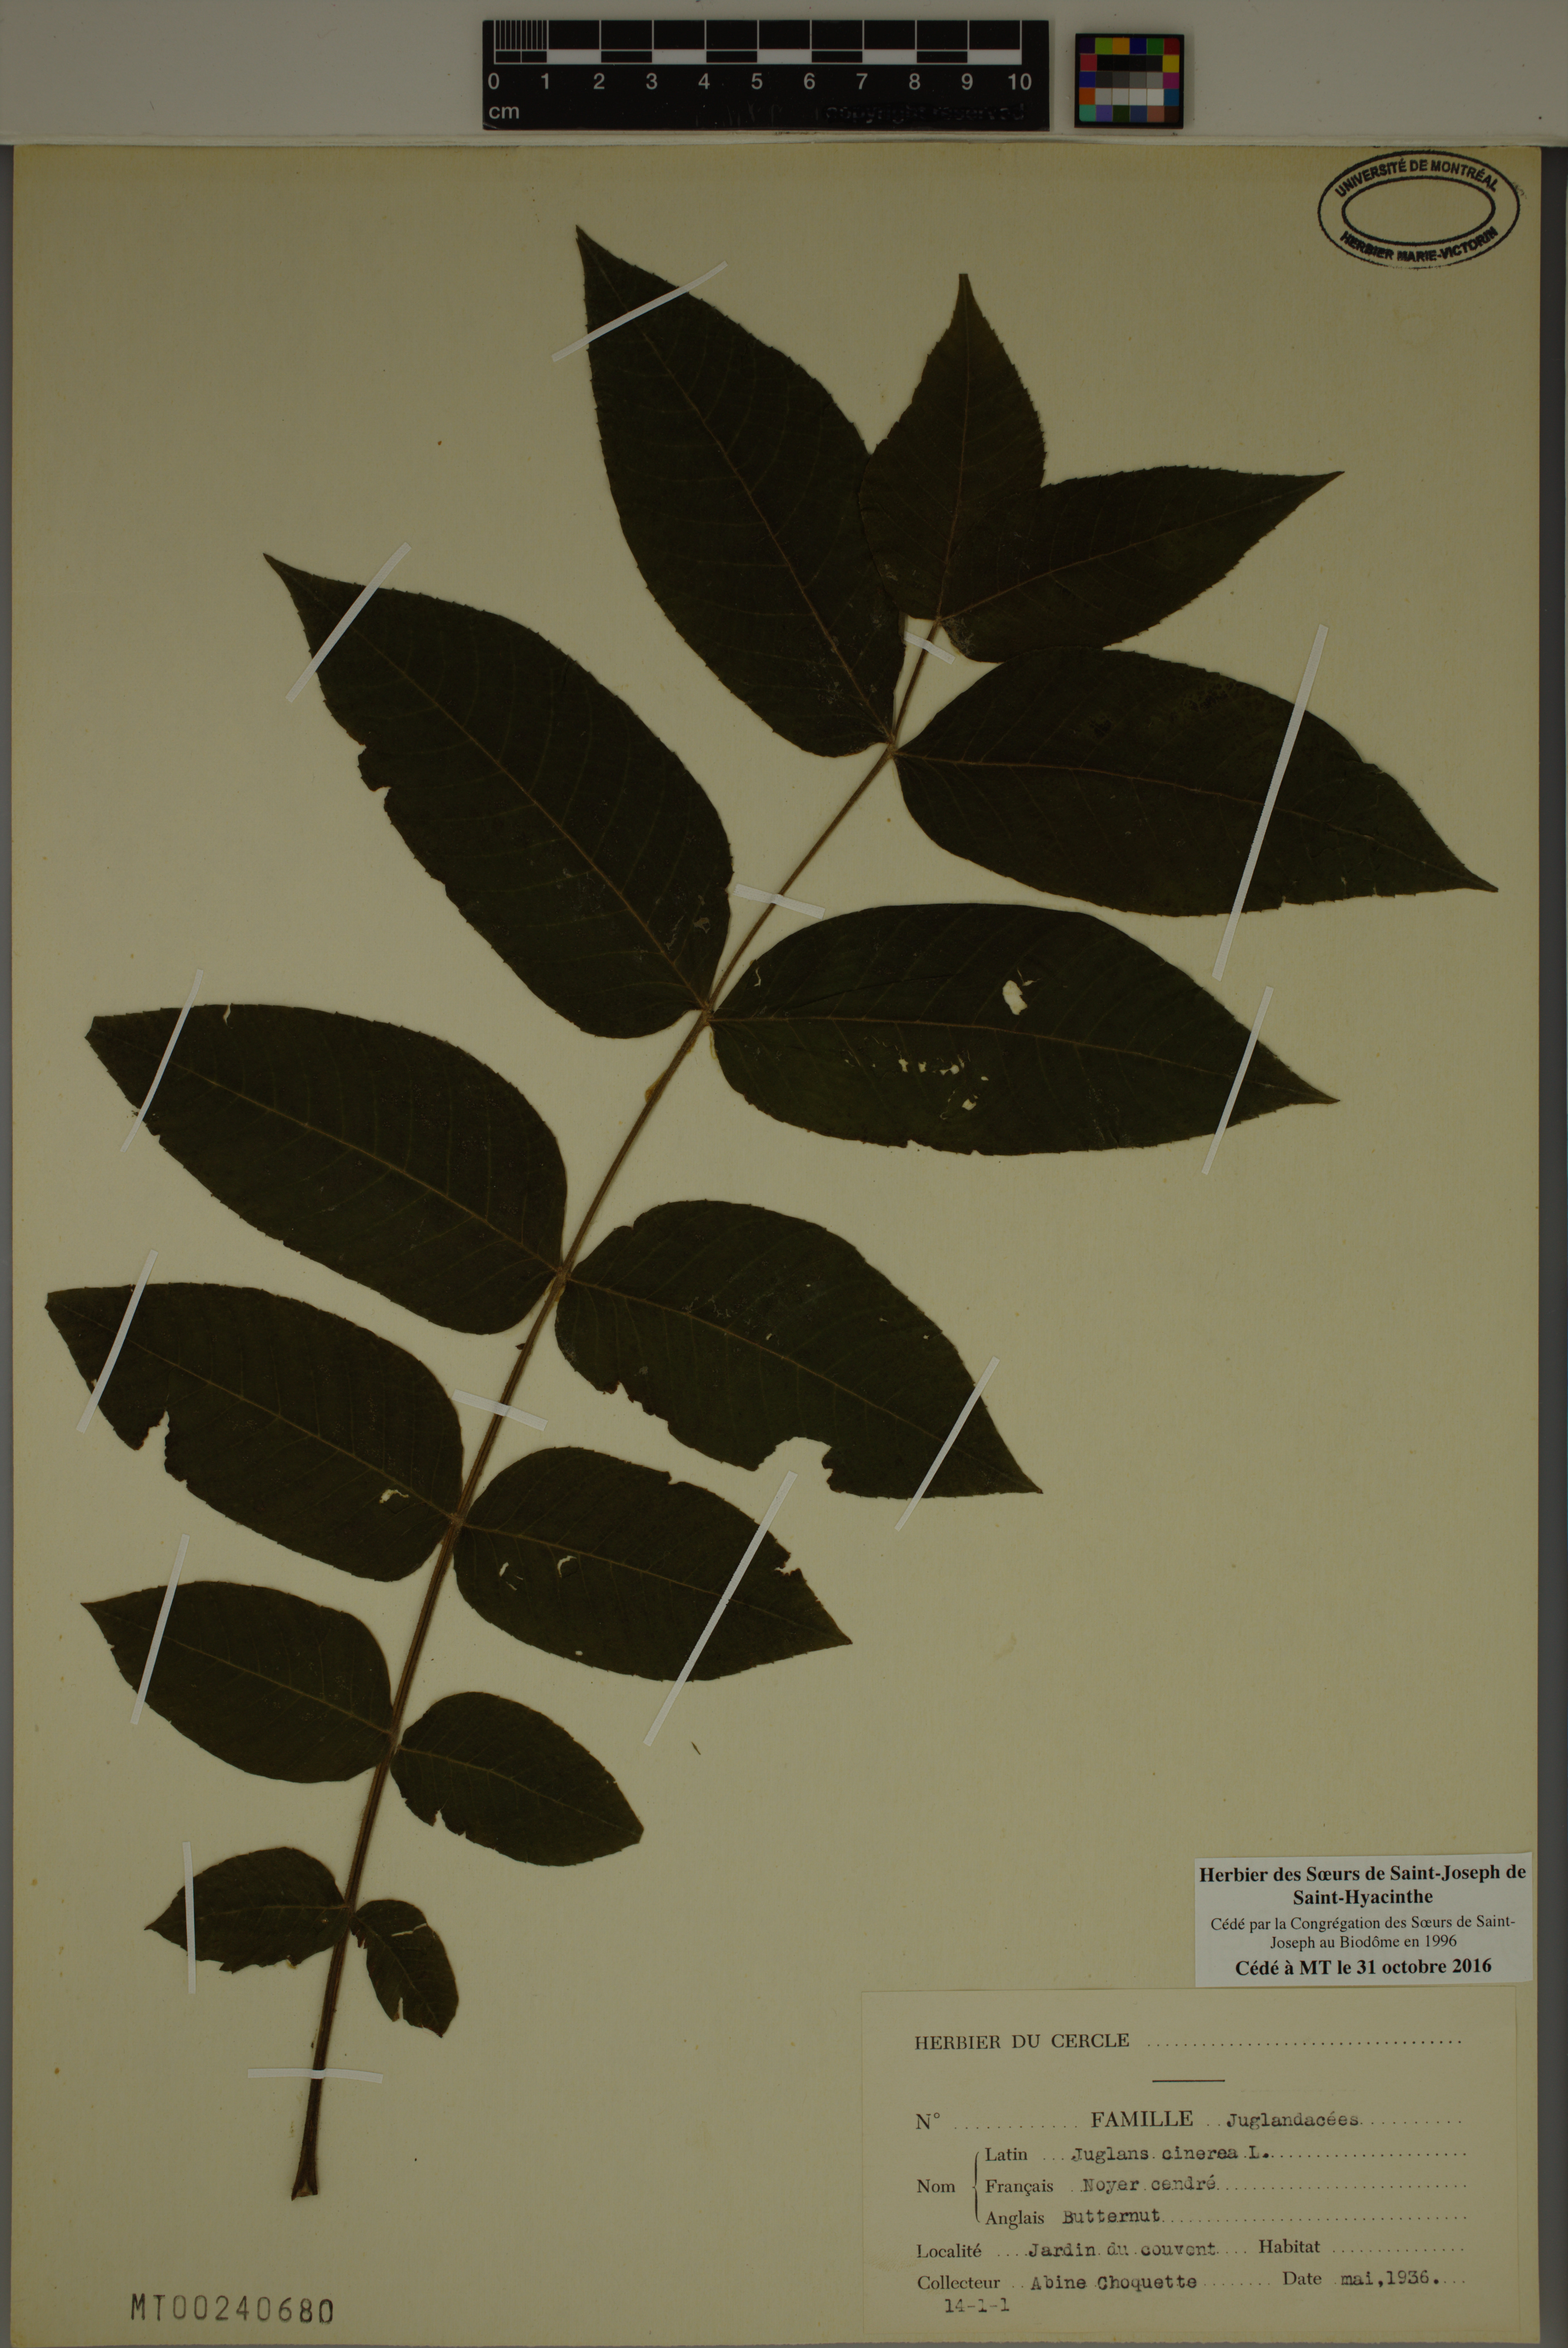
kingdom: Plantae
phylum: Tracheophyta
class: Magnoliopsida
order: Fagales
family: Juglandaceae
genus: Juglans
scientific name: Juglans cinerea
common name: Butternut
